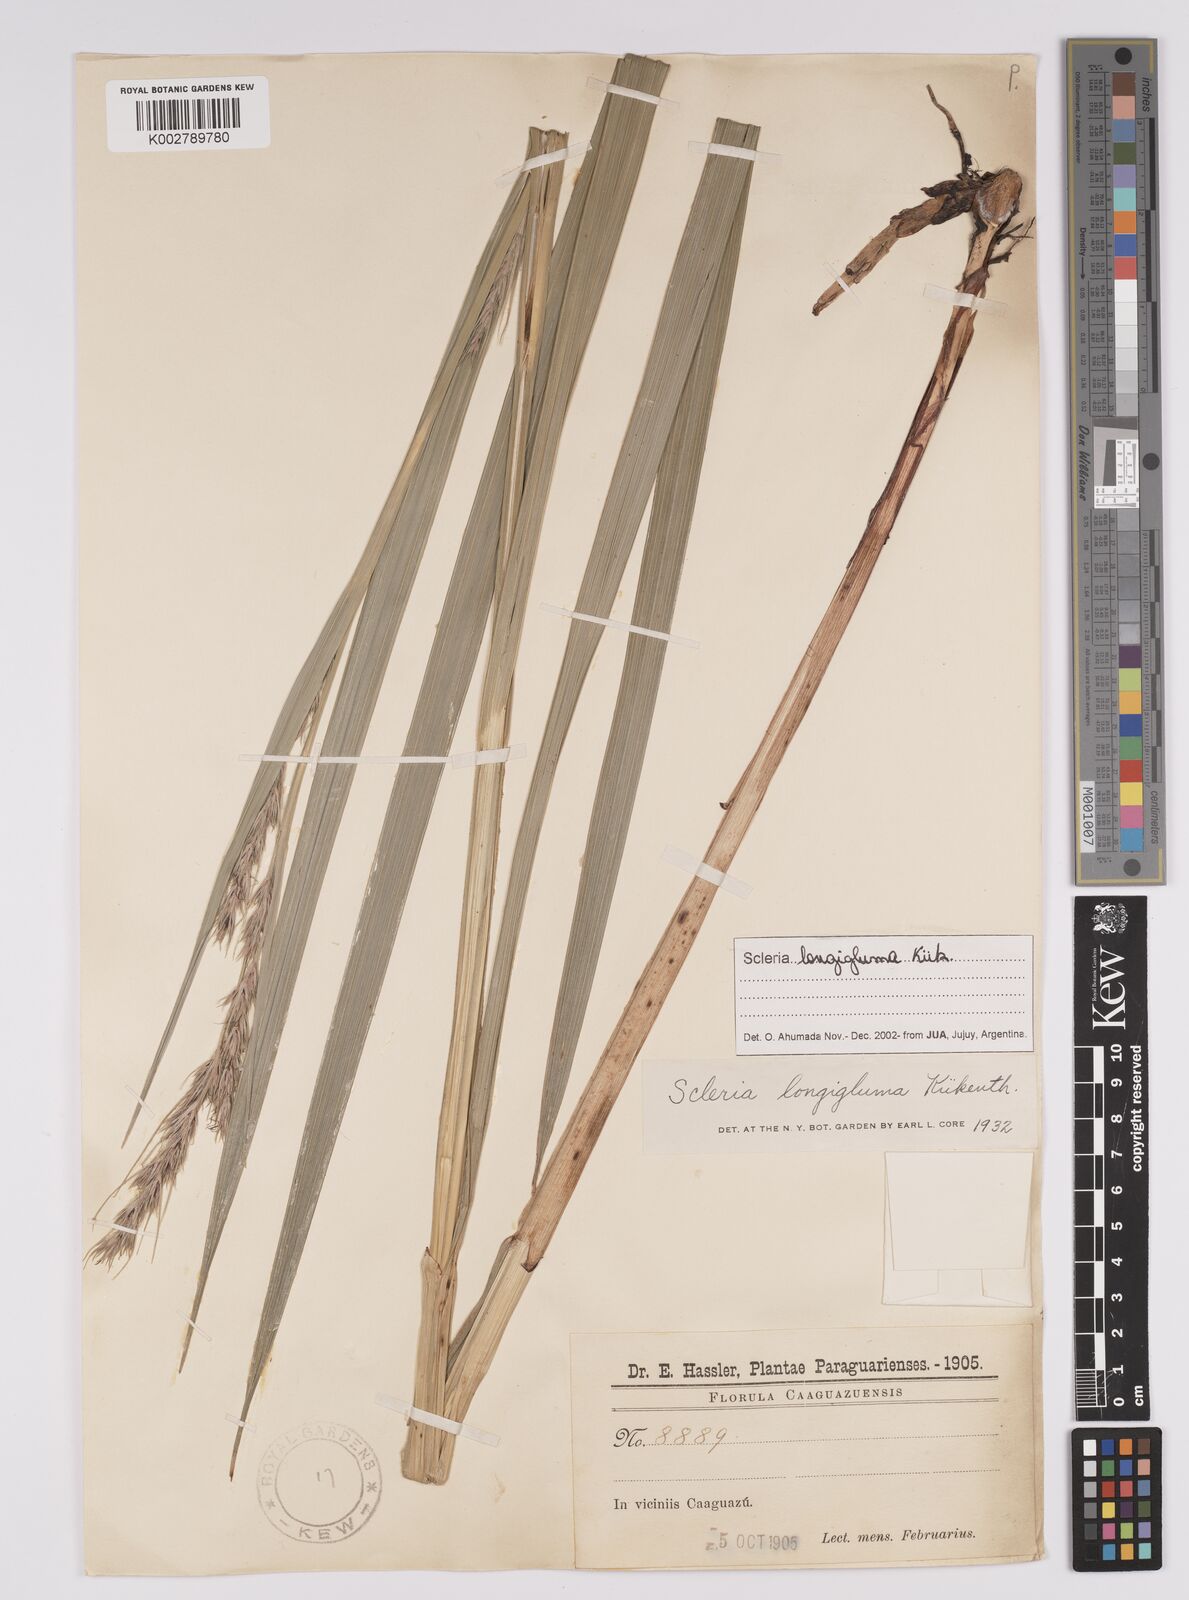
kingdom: Plantae
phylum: Tracheophyta
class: Liliopsida
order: Poales
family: Cyperaceae
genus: Scleria
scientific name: Scleria melanomphala
